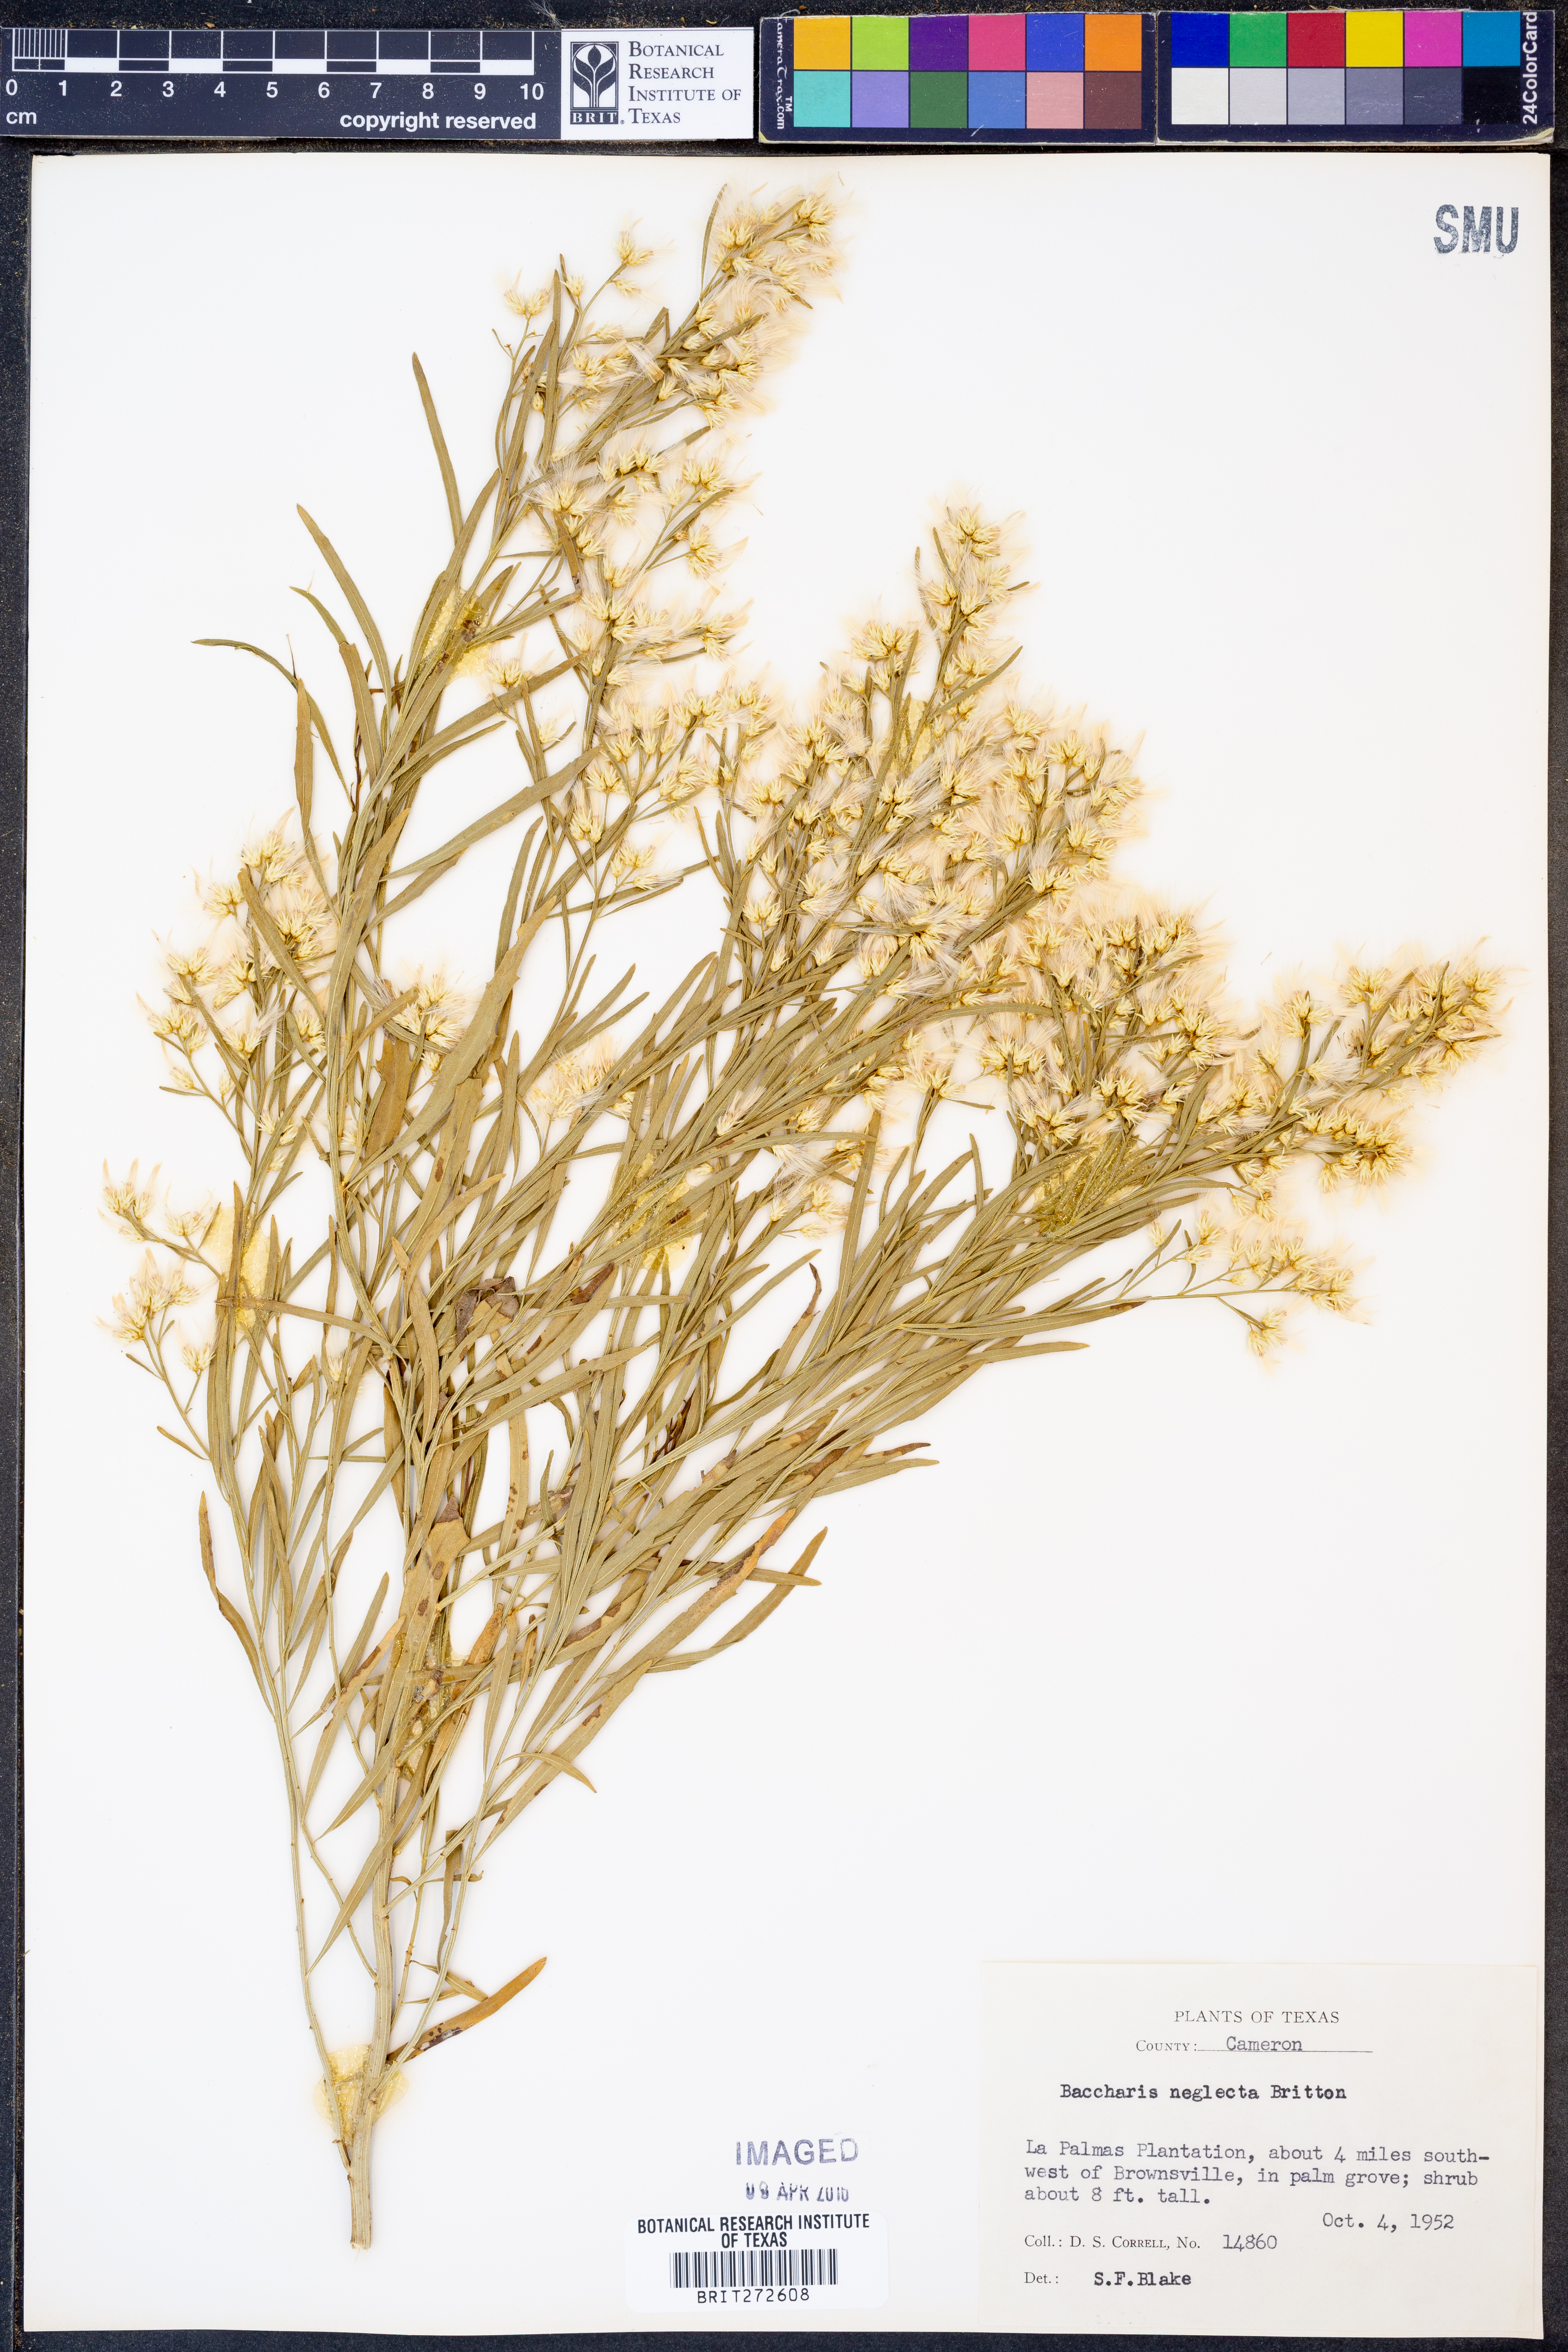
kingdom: Plantae
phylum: Tracheophyta
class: Magnoliopsida
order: Asterales
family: Asteraceae
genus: Baccharis
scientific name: Baccharis neglecta
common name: Roosevelt-weed
